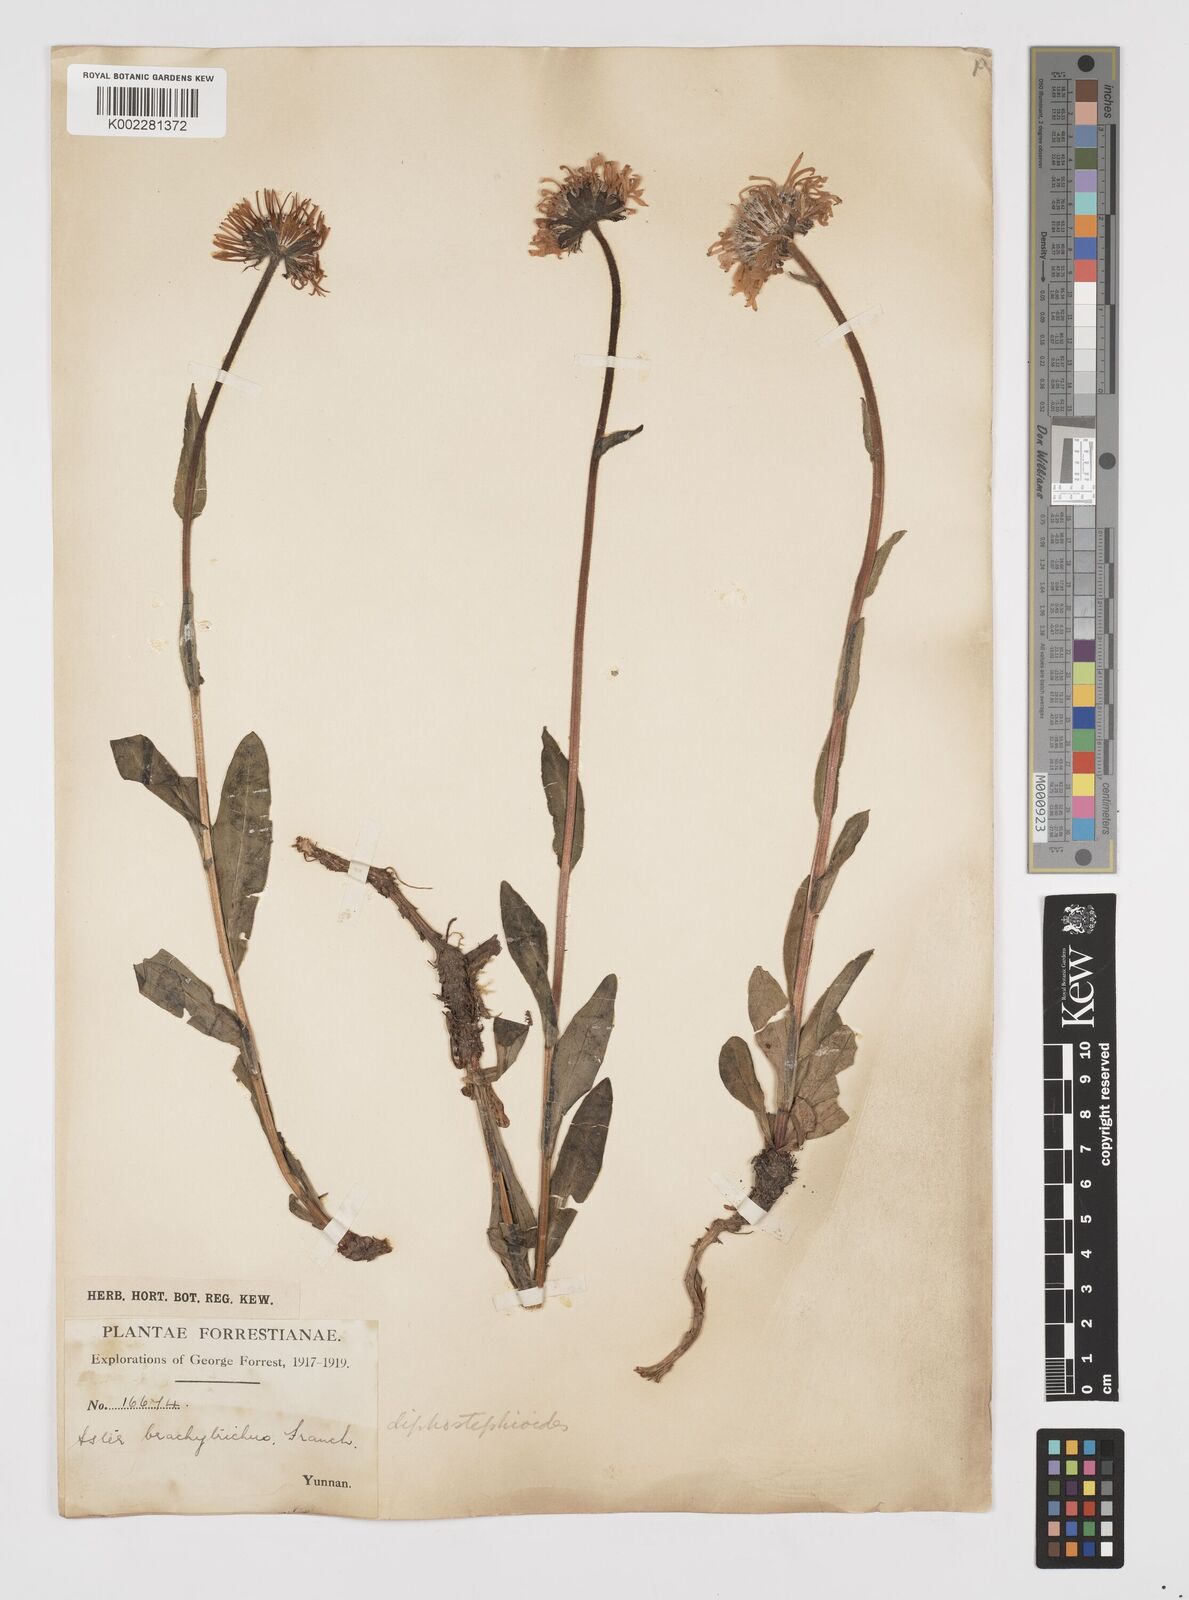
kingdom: Plantae
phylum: Tracheophyta
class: Magnoliopsida
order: Asterales
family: Asteraceae
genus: Tibetiodes
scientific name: Tibetiodes diplostephioides
